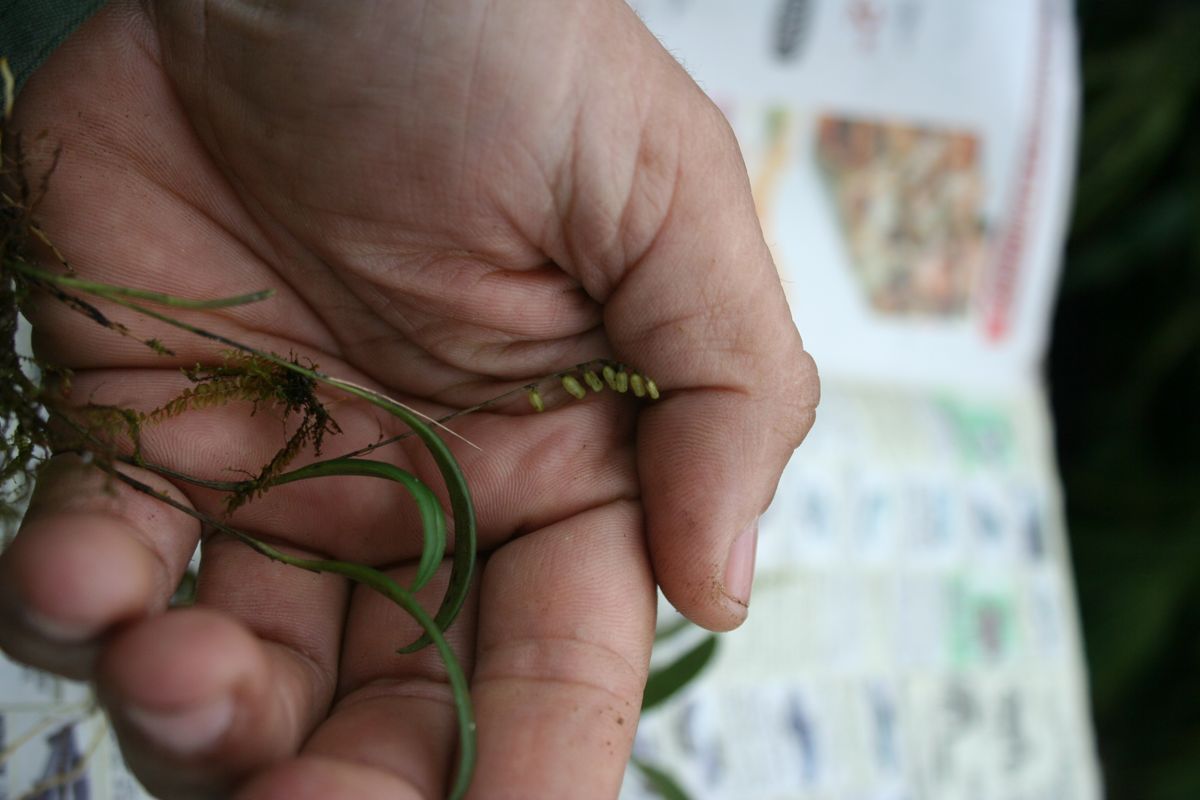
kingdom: Plantae
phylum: Tracheophyta
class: Liliopsida
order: Asparagales
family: Orchidaceae
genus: Specklinia
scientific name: Specklinia fuegi
